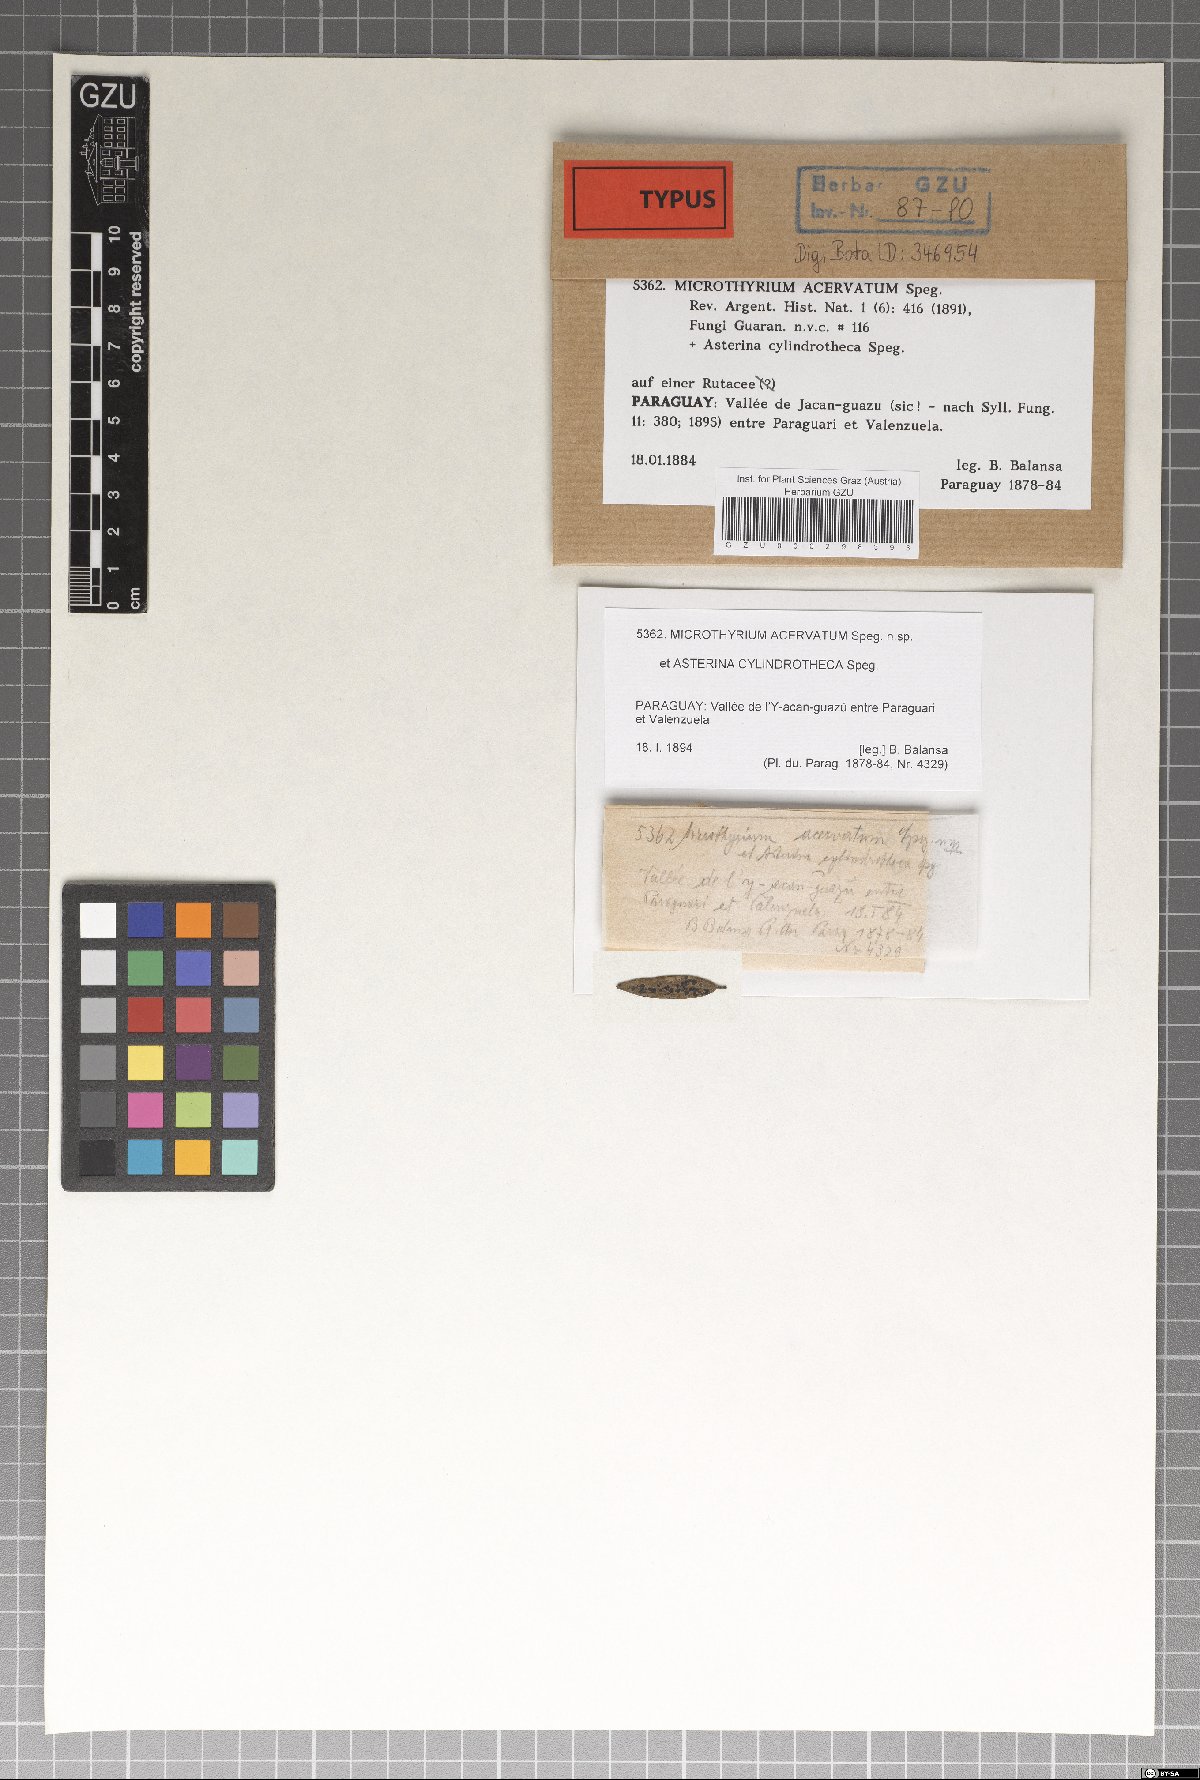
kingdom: Fungi
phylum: Ascomycota
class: Dothideomycetes
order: Microthyriales
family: Microthyriaceae
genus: Microthyrium
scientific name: Microthyrium
